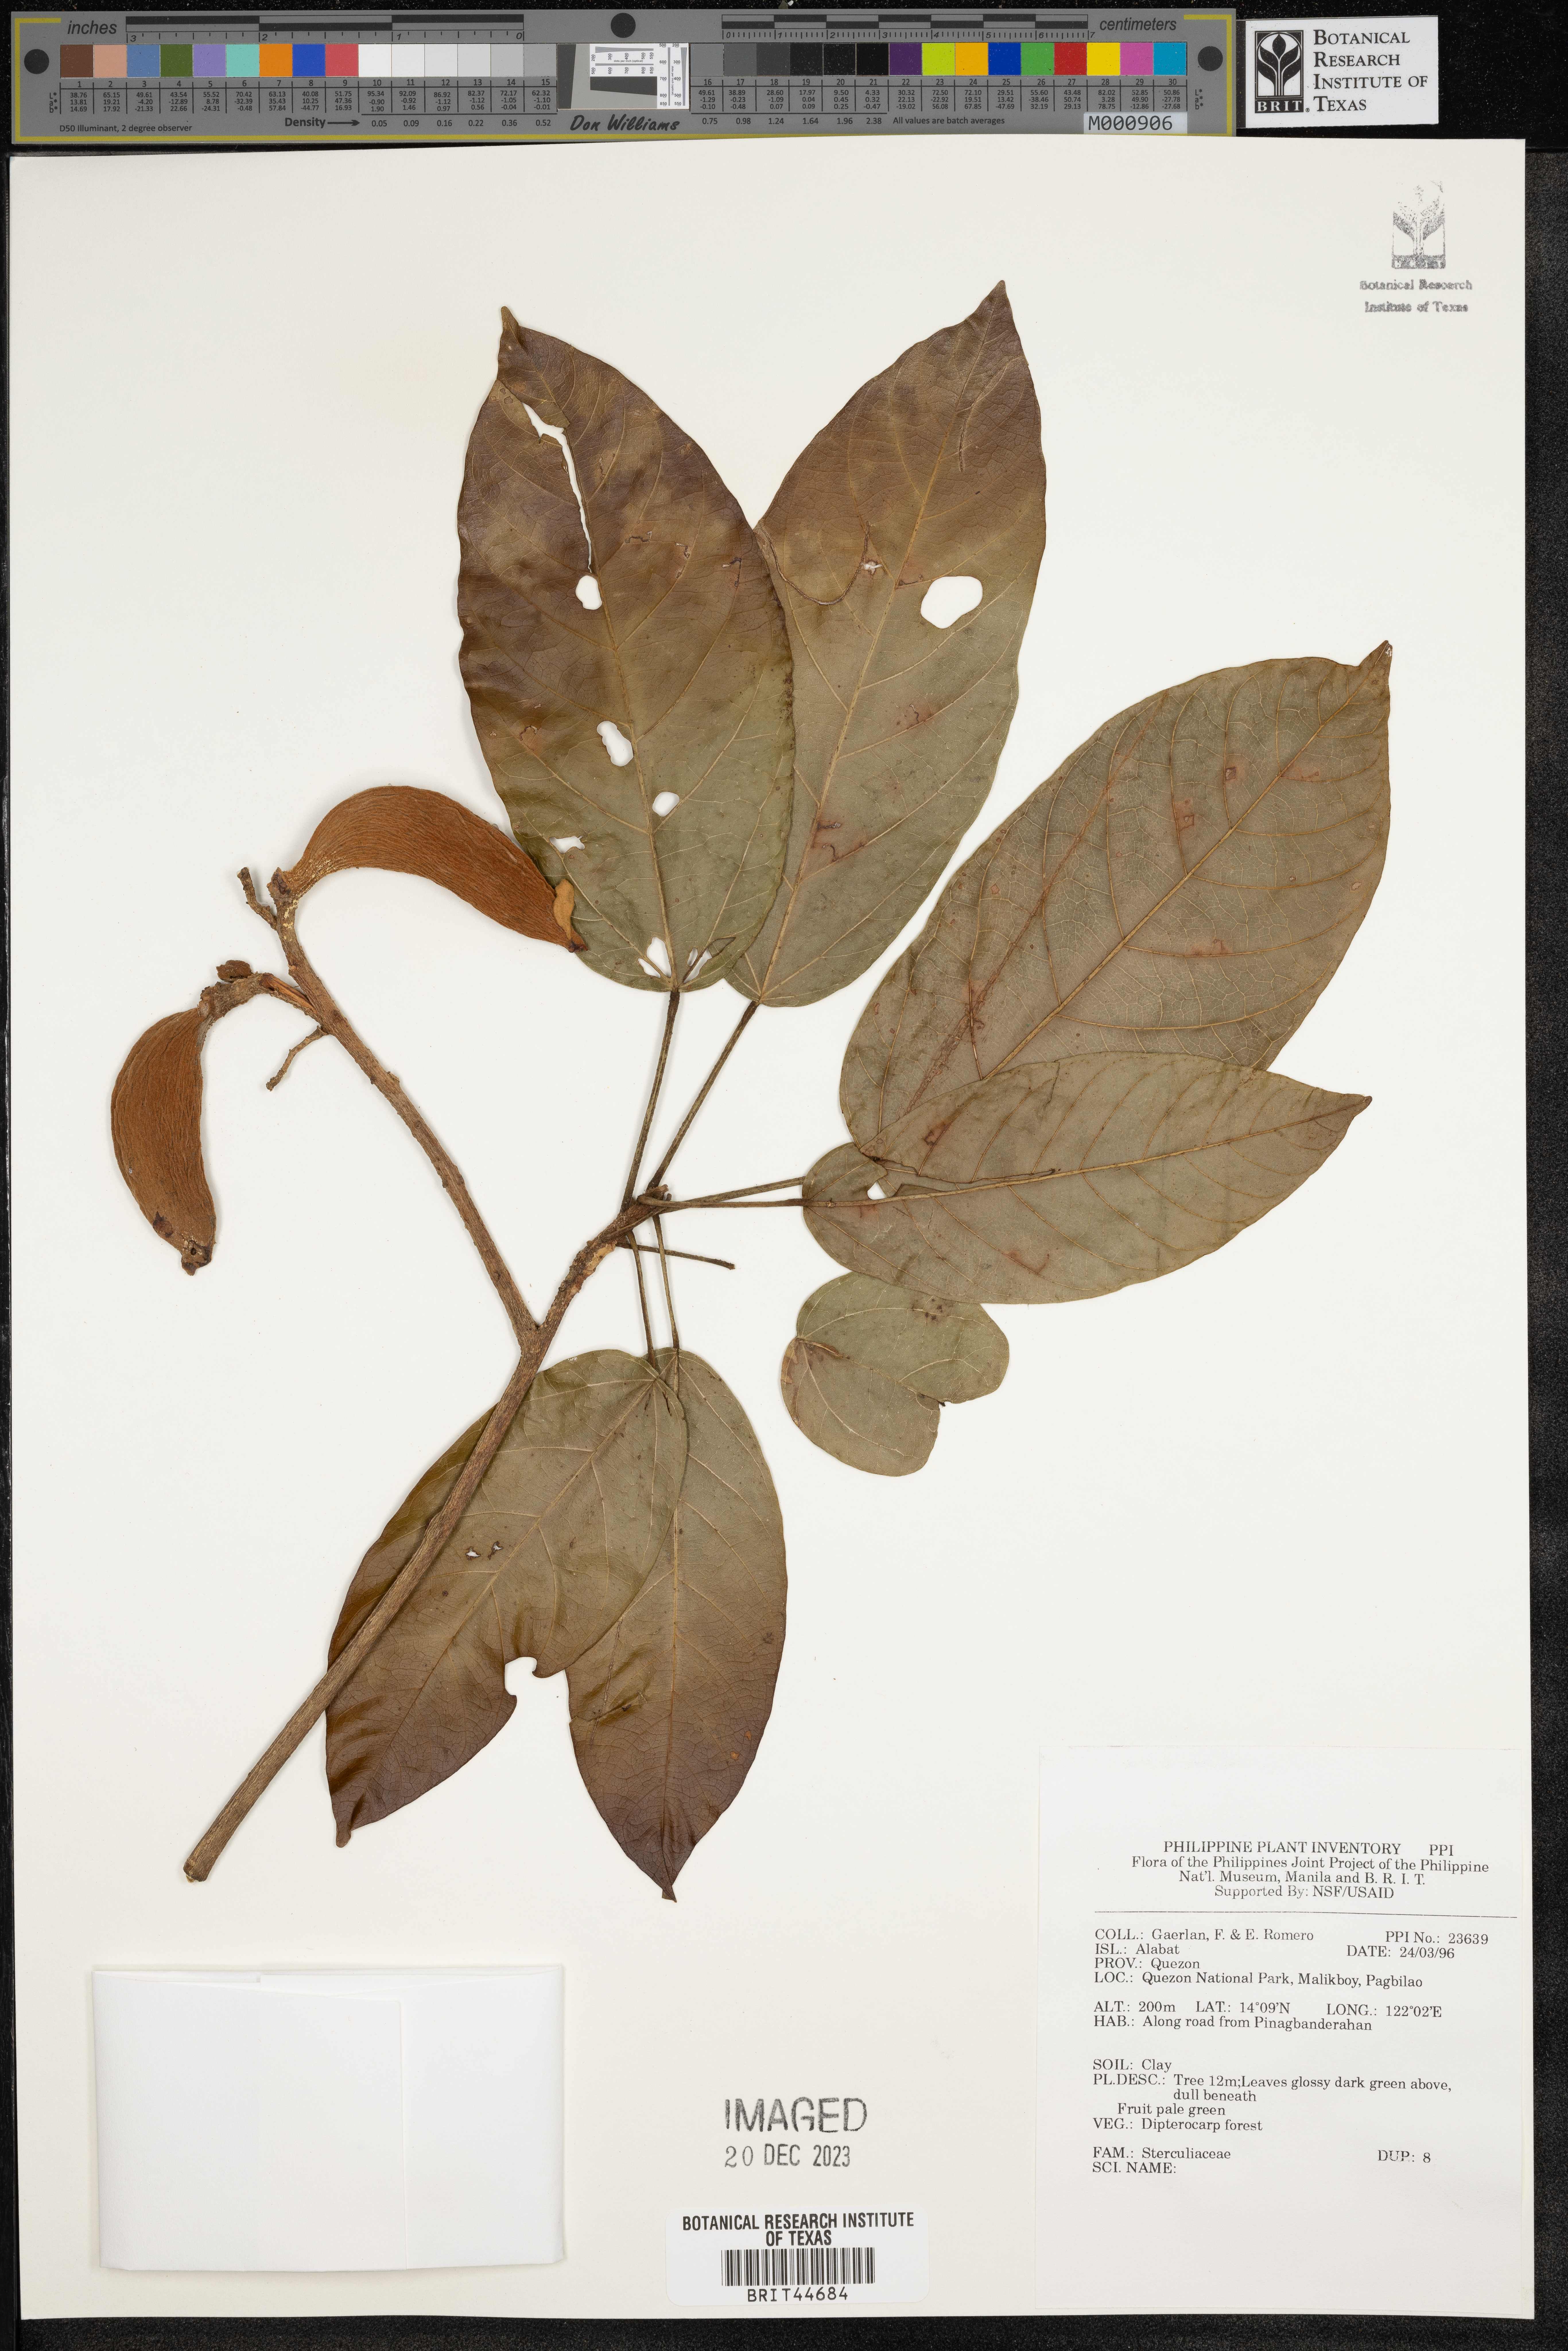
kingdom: Plantae
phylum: Tracheophyta
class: Magnoliopsida
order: Malvales
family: Sterculiaceae
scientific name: Sterculiaceae
